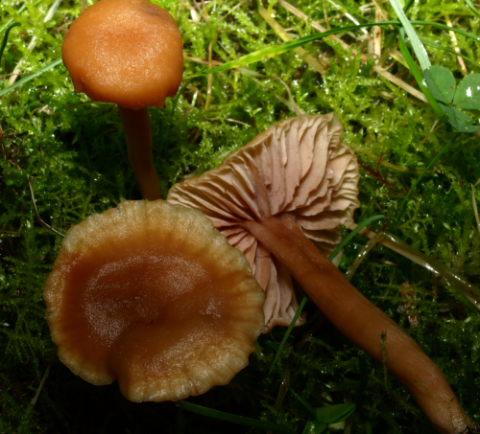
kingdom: Fungi
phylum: Basidiomycota
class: Agaricomycetes
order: Agaricales
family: Hydnangiaceae
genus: Laccaria
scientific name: Laccaria laccata
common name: rød ametysthat
